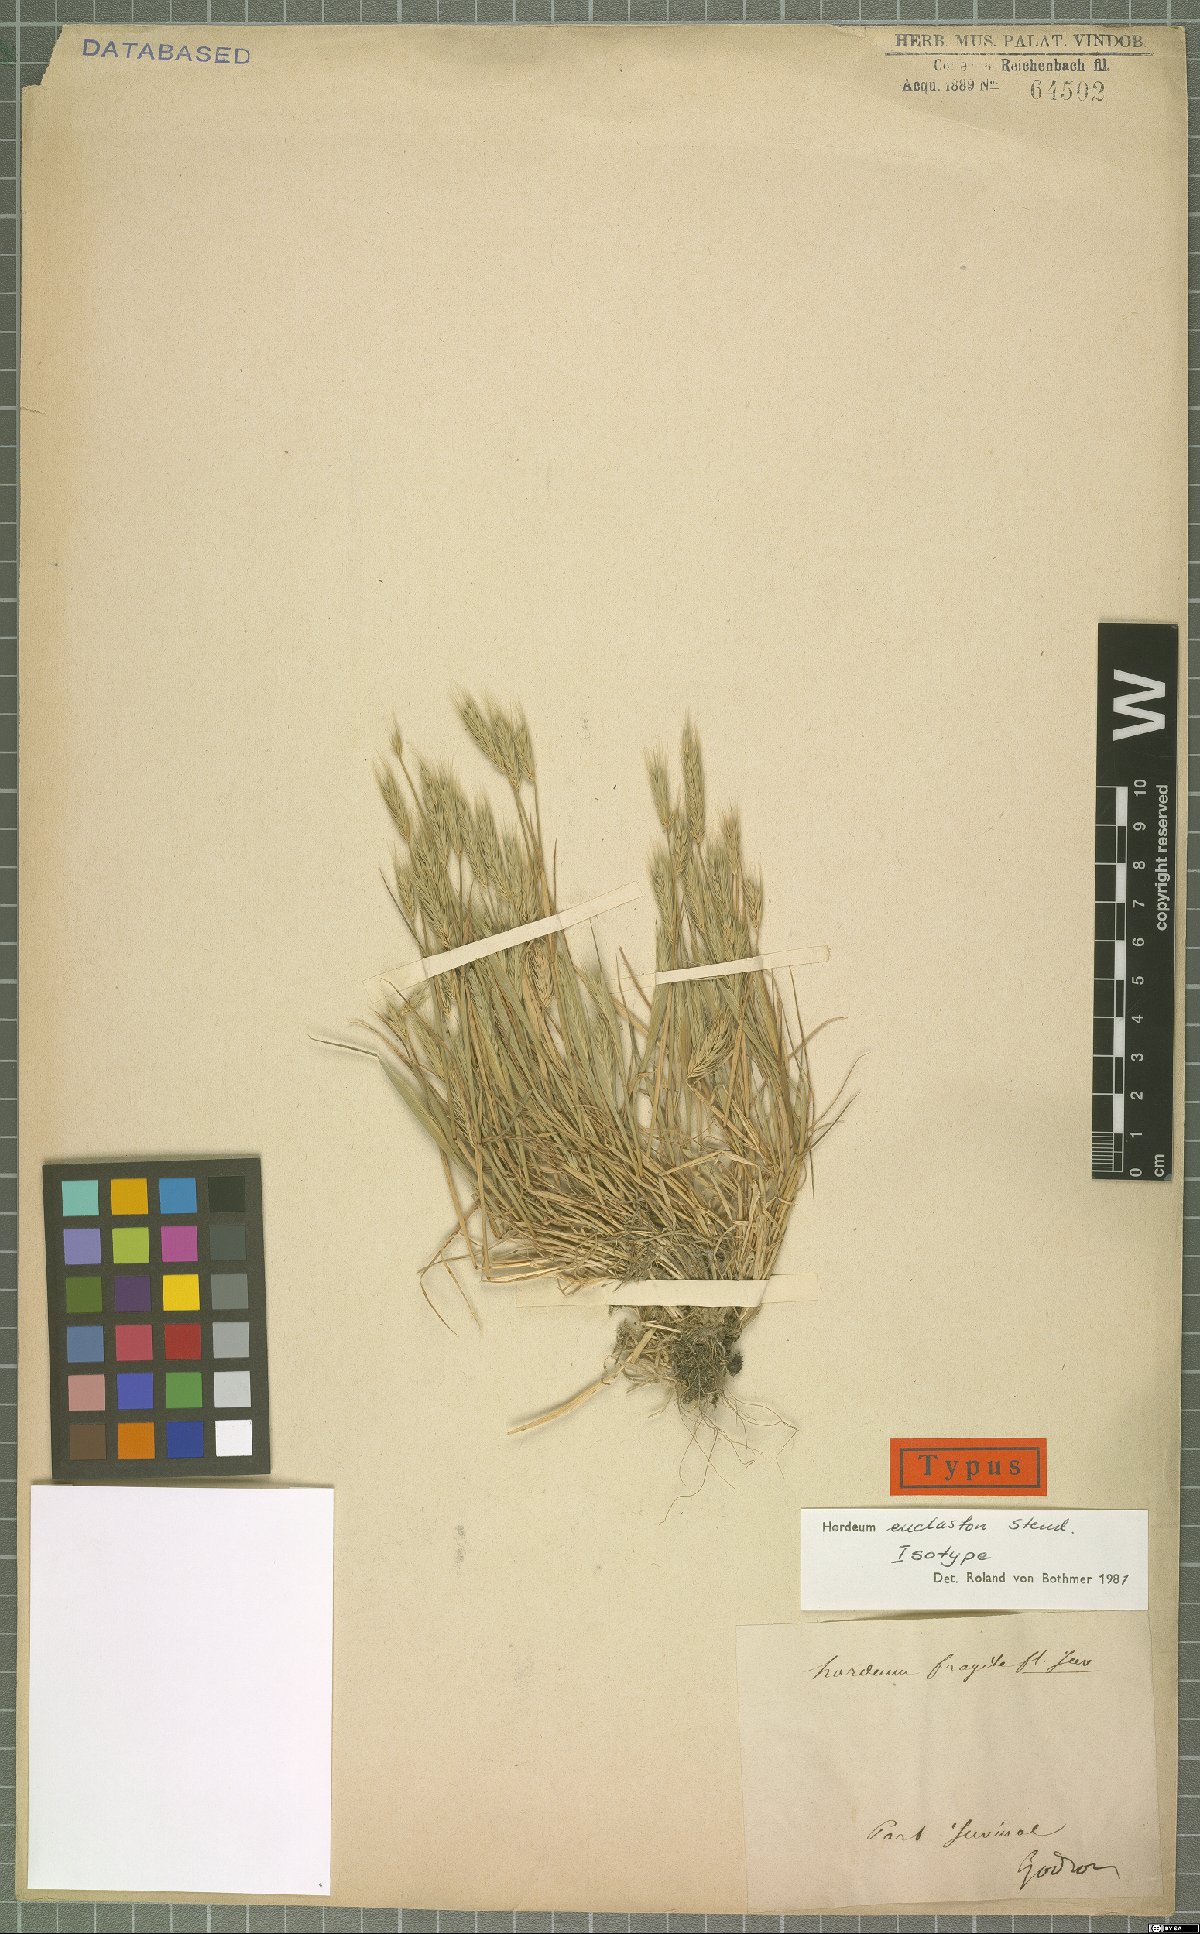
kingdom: Plantae
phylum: Tracheophyta
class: Liliopsida
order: Poales
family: Poaceae
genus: Hordeum
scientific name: Hordeum euclaston
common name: Argentine barley
